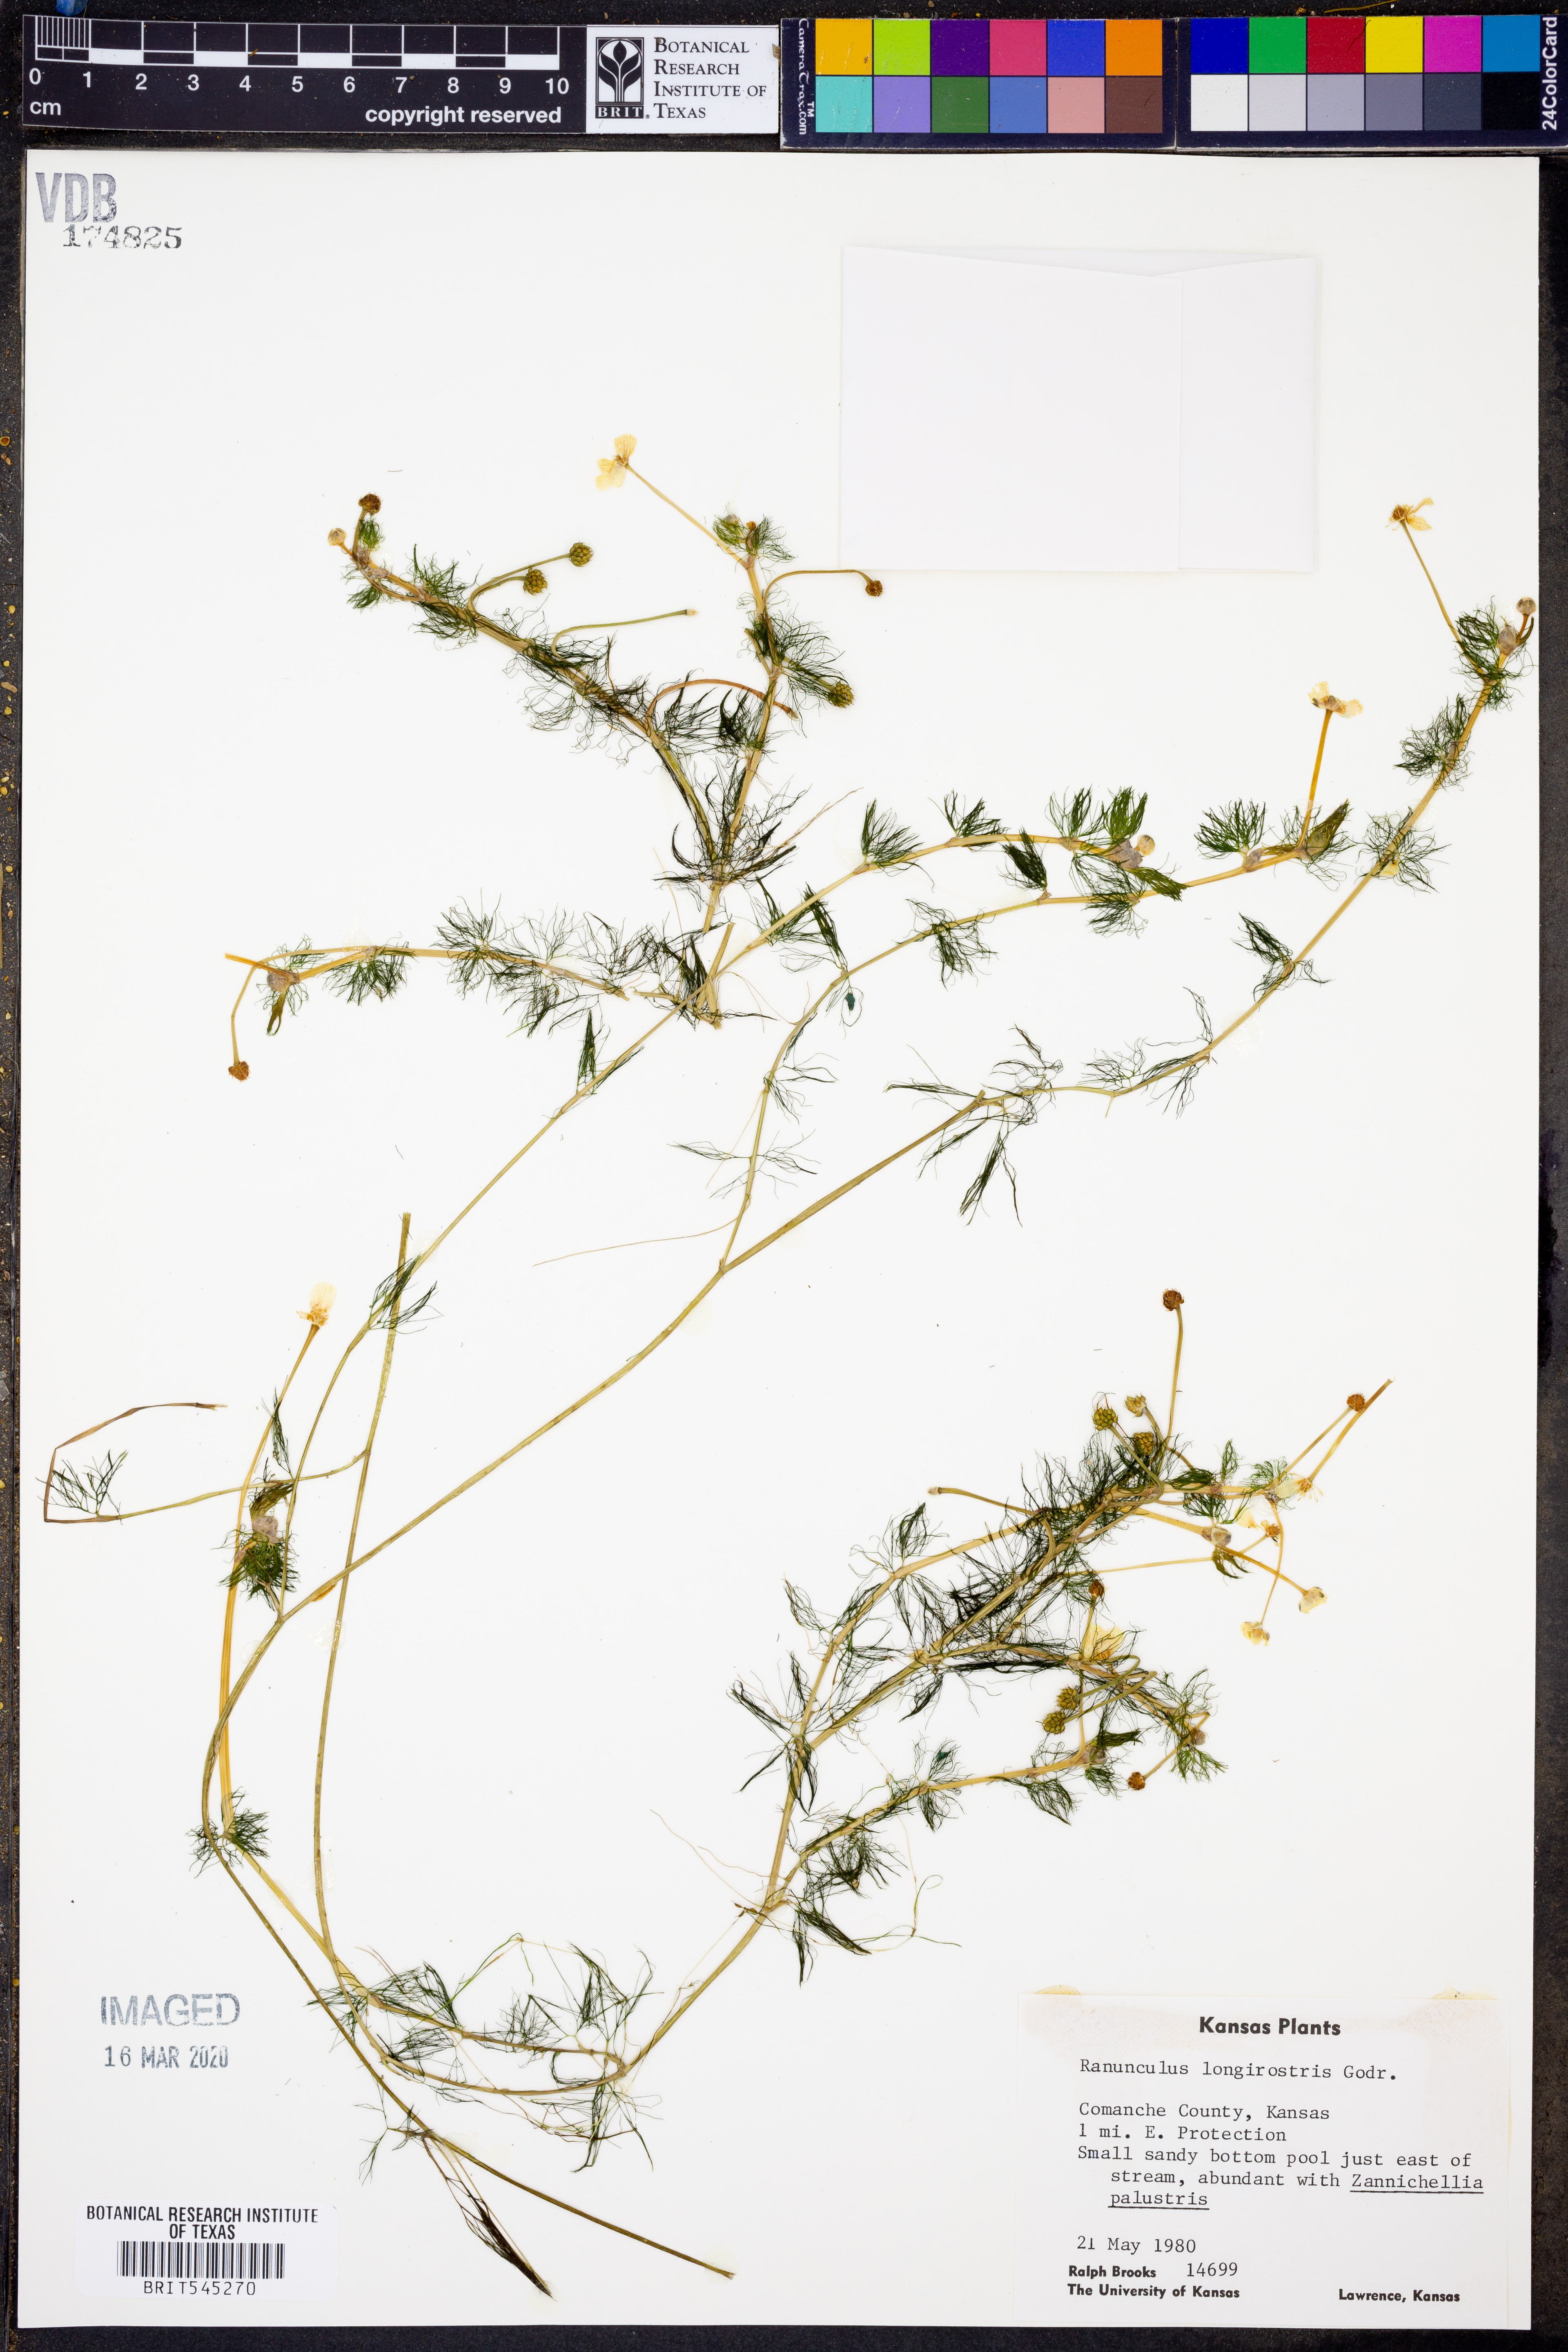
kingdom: Plantae
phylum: Tracheophyta
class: Magnoliopsida
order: Ranunculales
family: Ranunculaceae
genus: Ranunculus
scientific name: Ranunculus longirostris
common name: Curly white water-crowfoot
